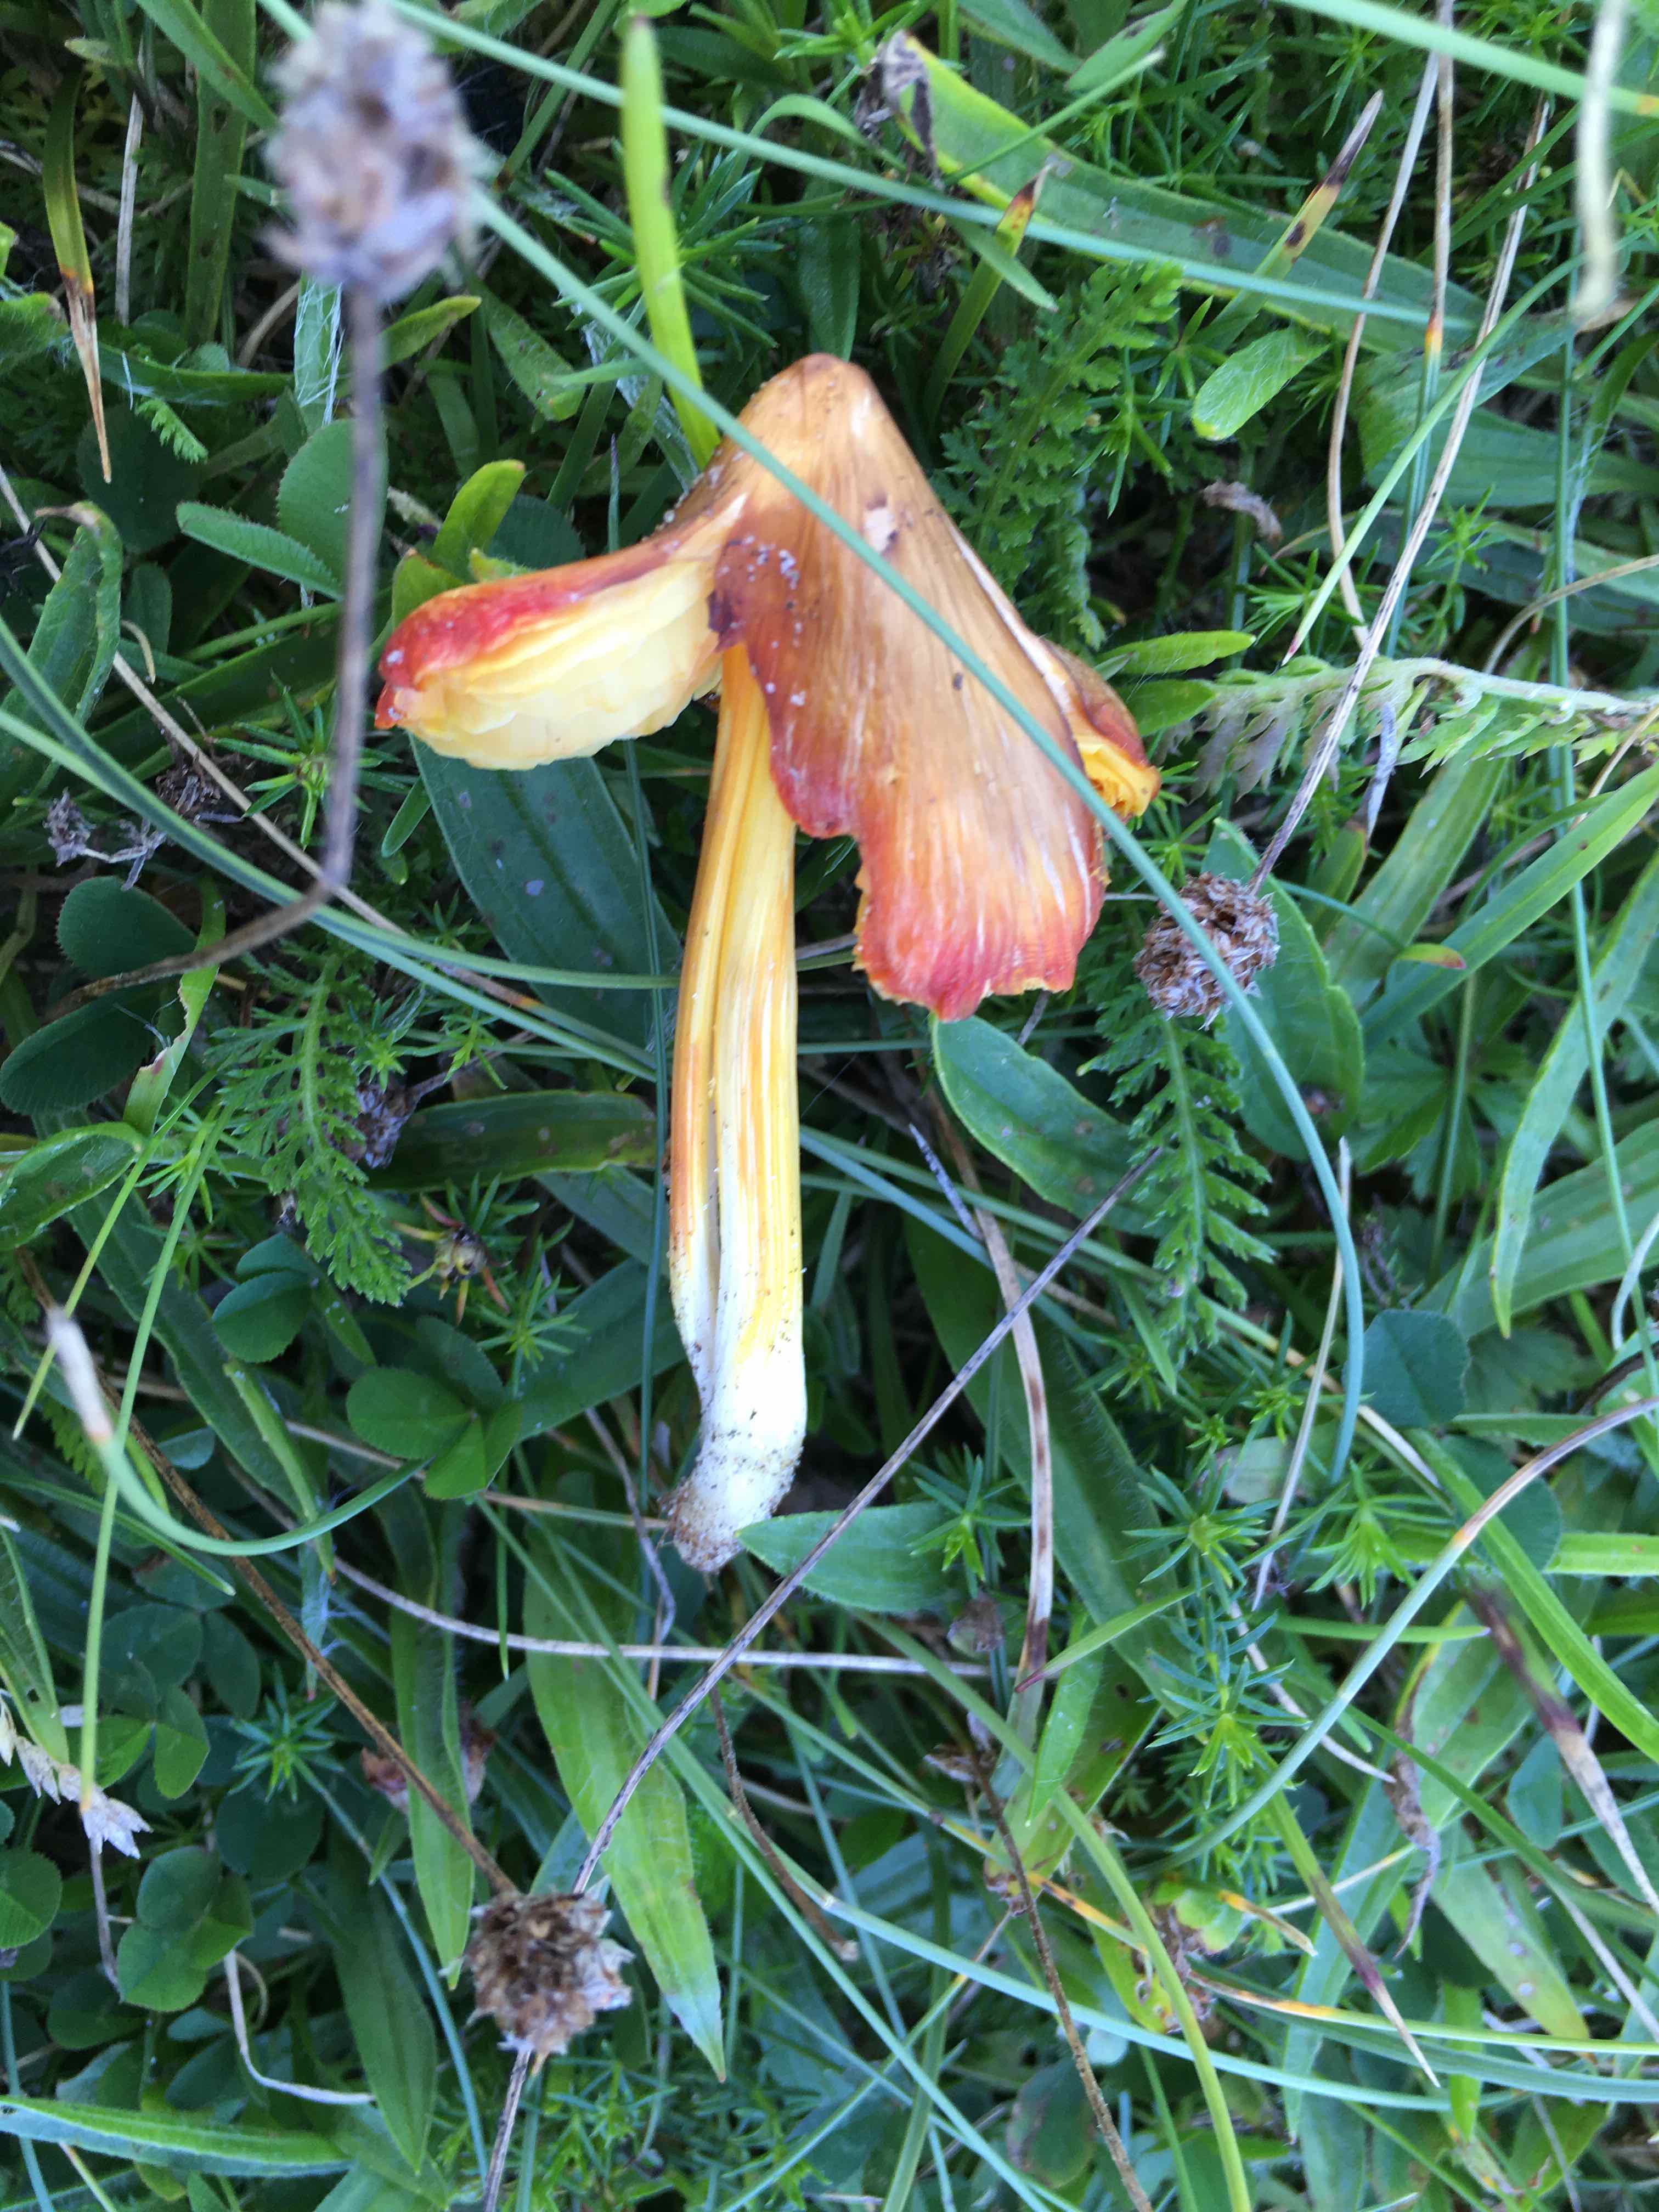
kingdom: Fungi
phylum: Basidiomycota
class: Agaricomycetes
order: Agaricales
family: Hygrophoraceae
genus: Hygrocybe
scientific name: Hygrocybe acutoconica
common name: spidspuklet vokshat
